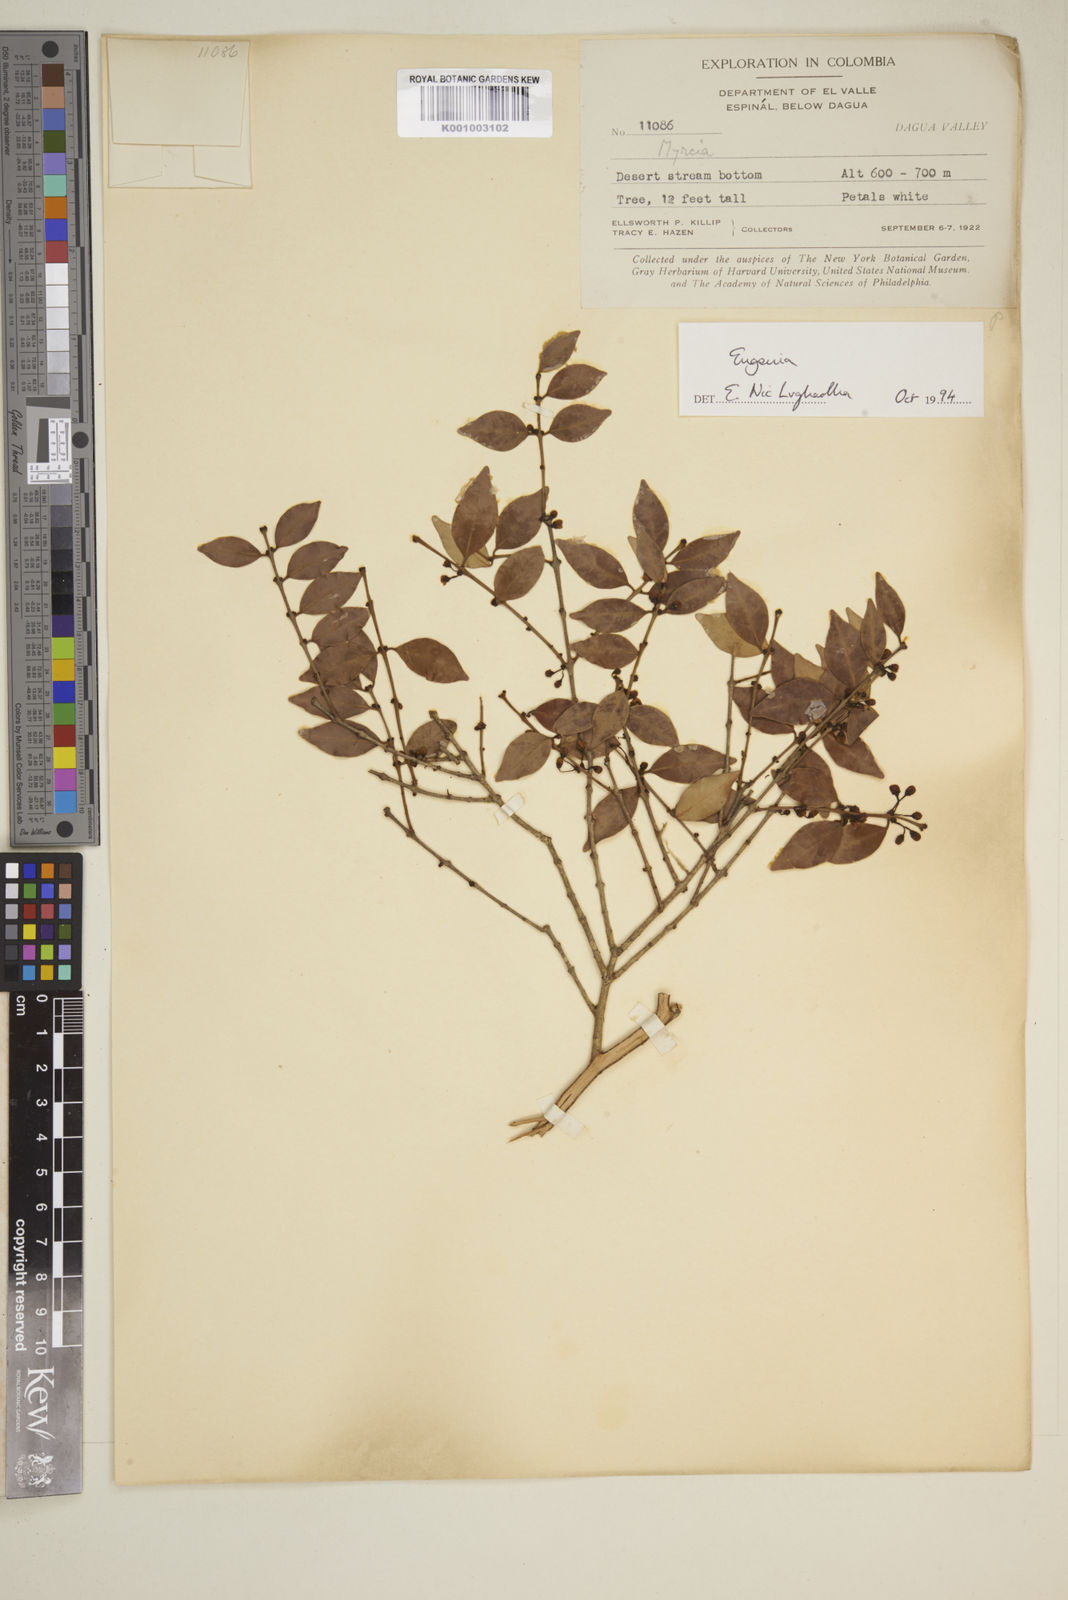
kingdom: Plantae
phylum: Tracheophyta
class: Magnoliopsida
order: Myrtales
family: Myrtaceae
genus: Eugenia
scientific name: Eugenia
